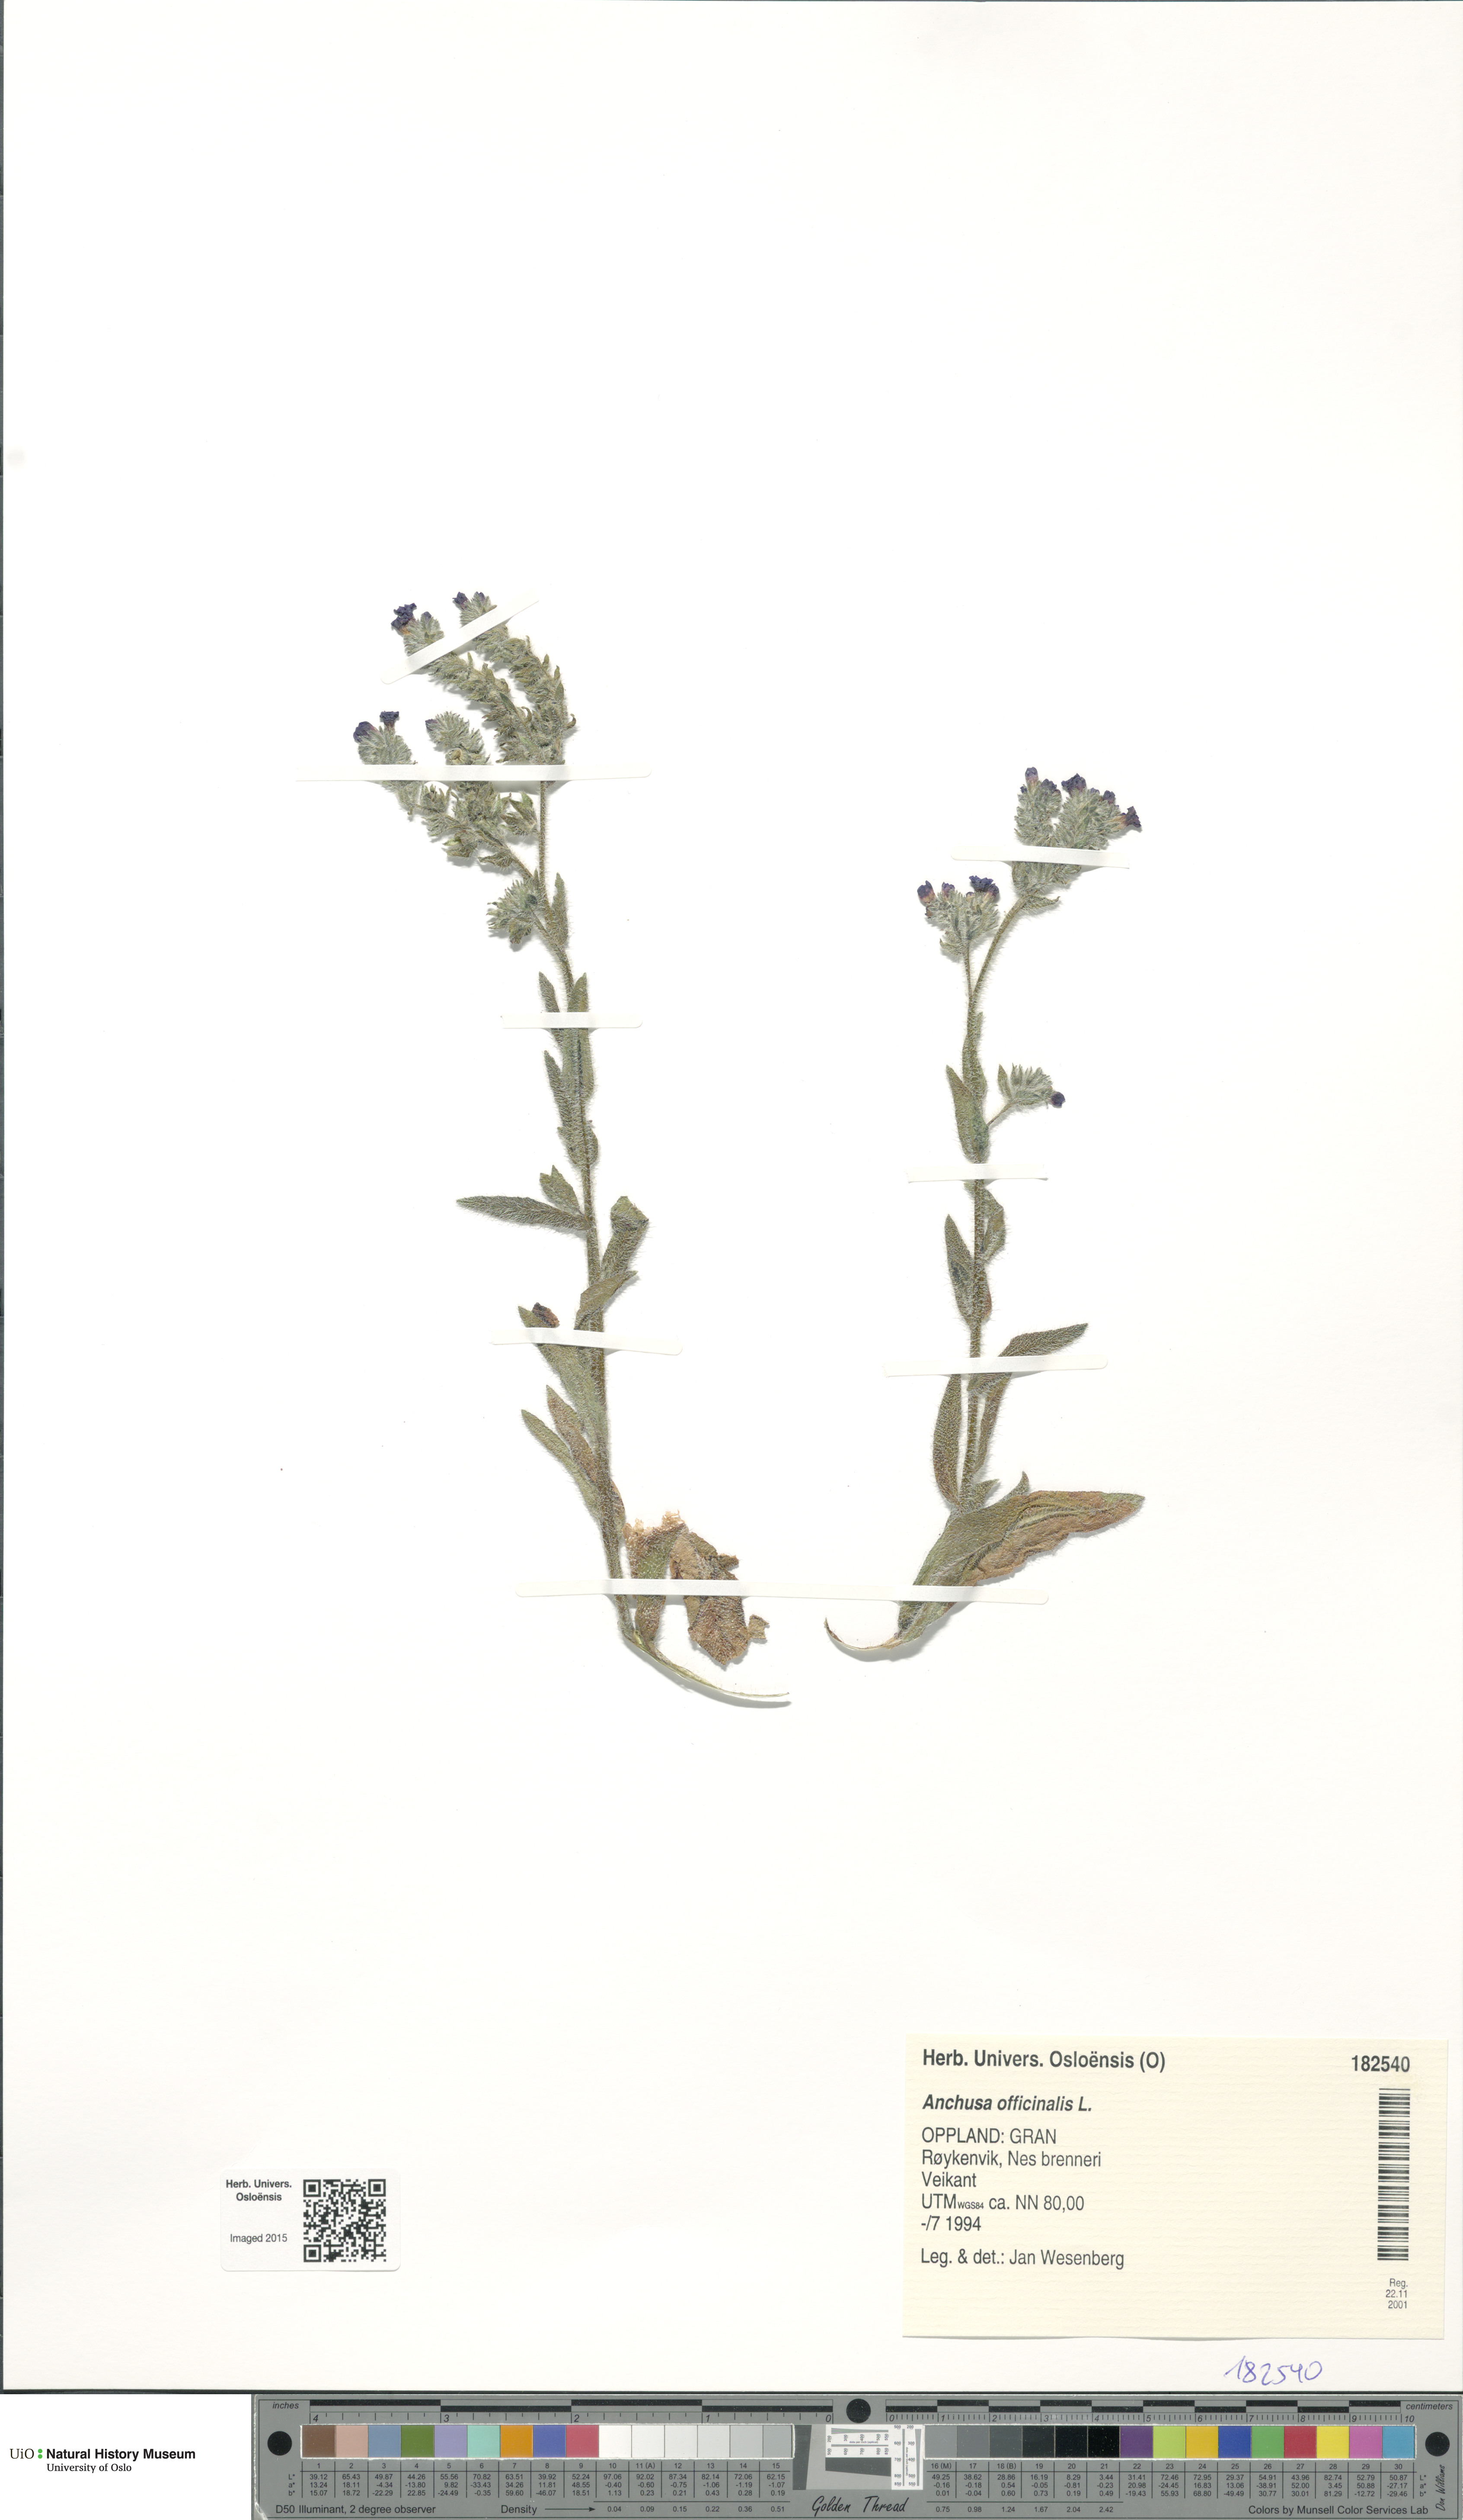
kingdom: Plantae
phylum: Tracheophyta
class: Magnoliopsida
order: Boraginales
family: Boraginaceae
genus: Anchusa
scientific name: Anchusa officinalis
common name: Alkanet
